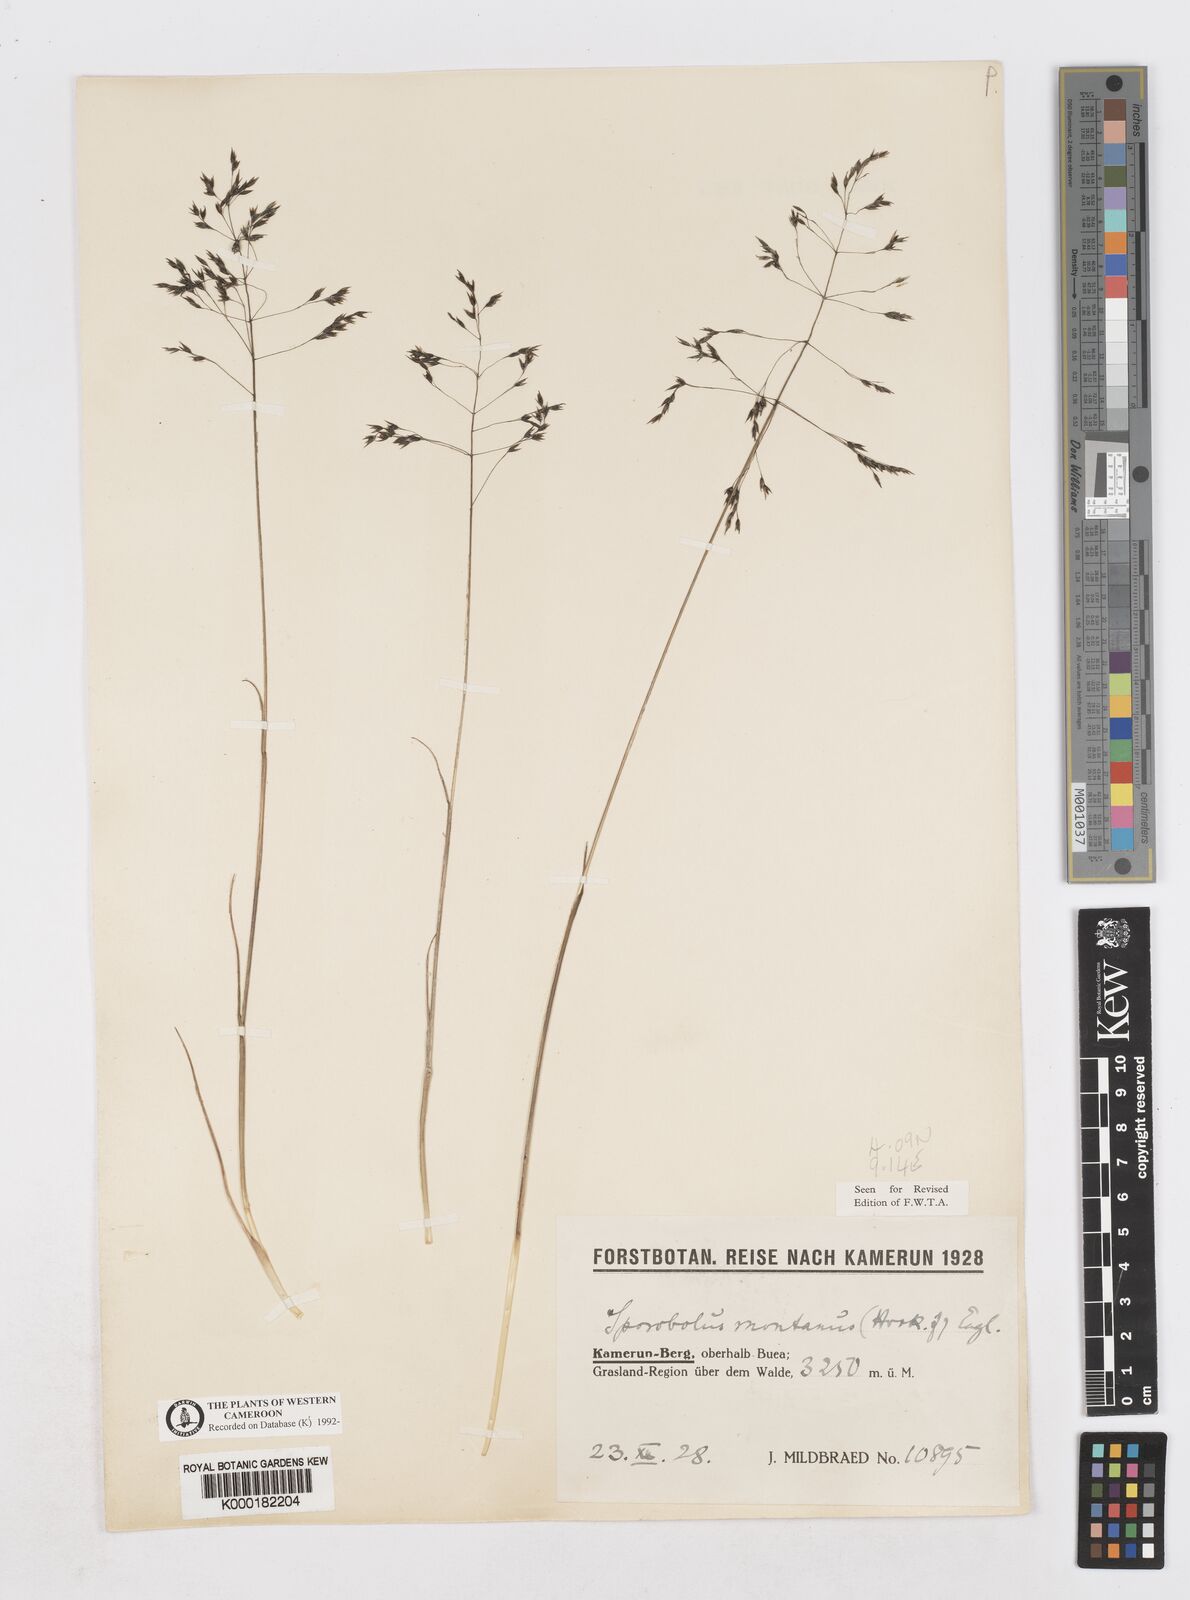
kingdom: Plantae
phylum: Tracheophyta
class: Liliopsida
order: Poales
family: Poaceae
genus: Sporobolus
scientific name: Sporobolus montanus
